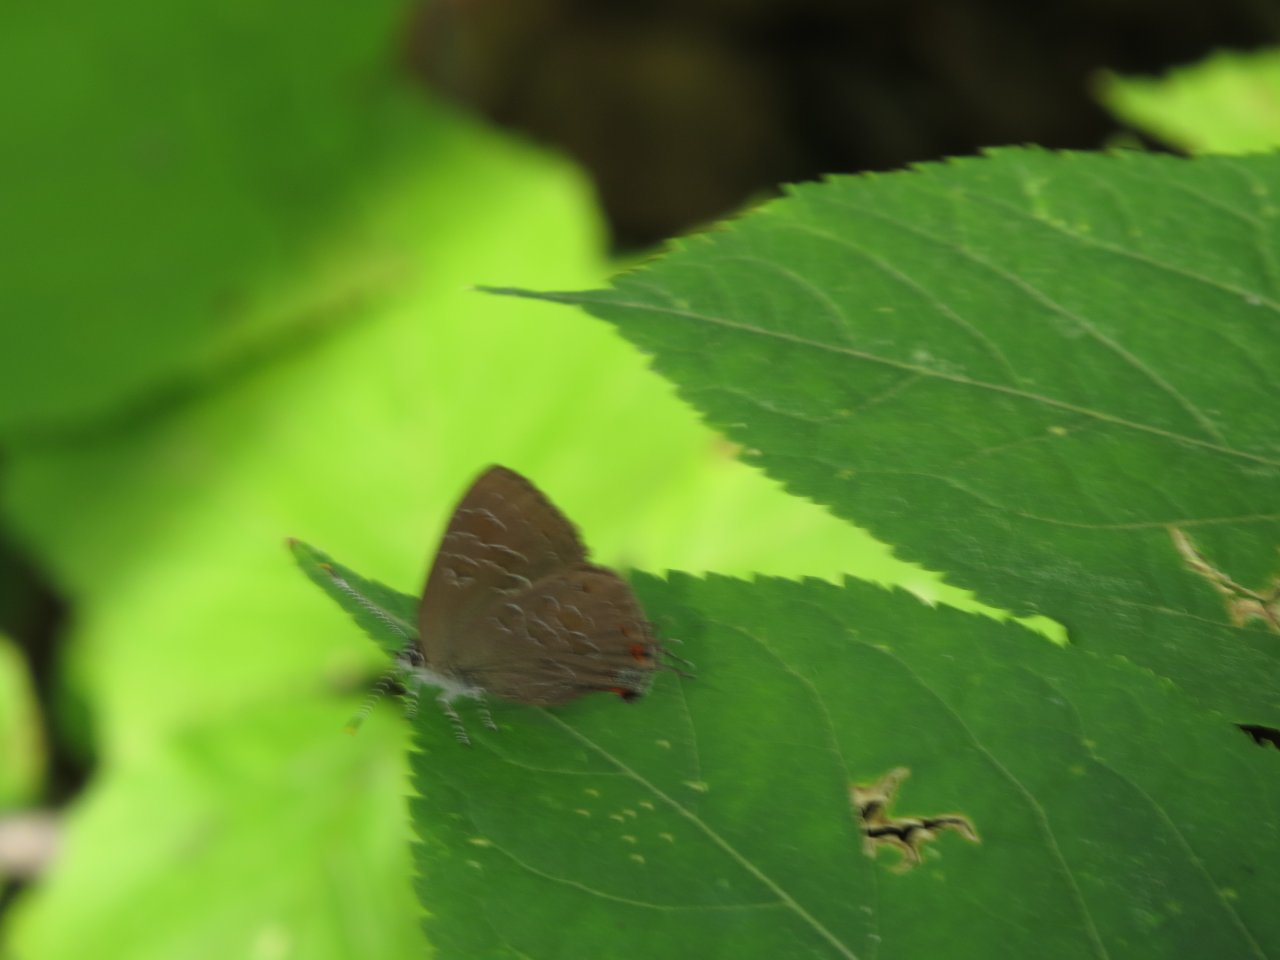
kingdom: Animalia
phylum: Arthropoda
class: Insecta
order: Lepidoptera
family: Lycaenidae
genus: Satyrium
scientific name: Satyrium liparops
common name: Striped Hairstreak
